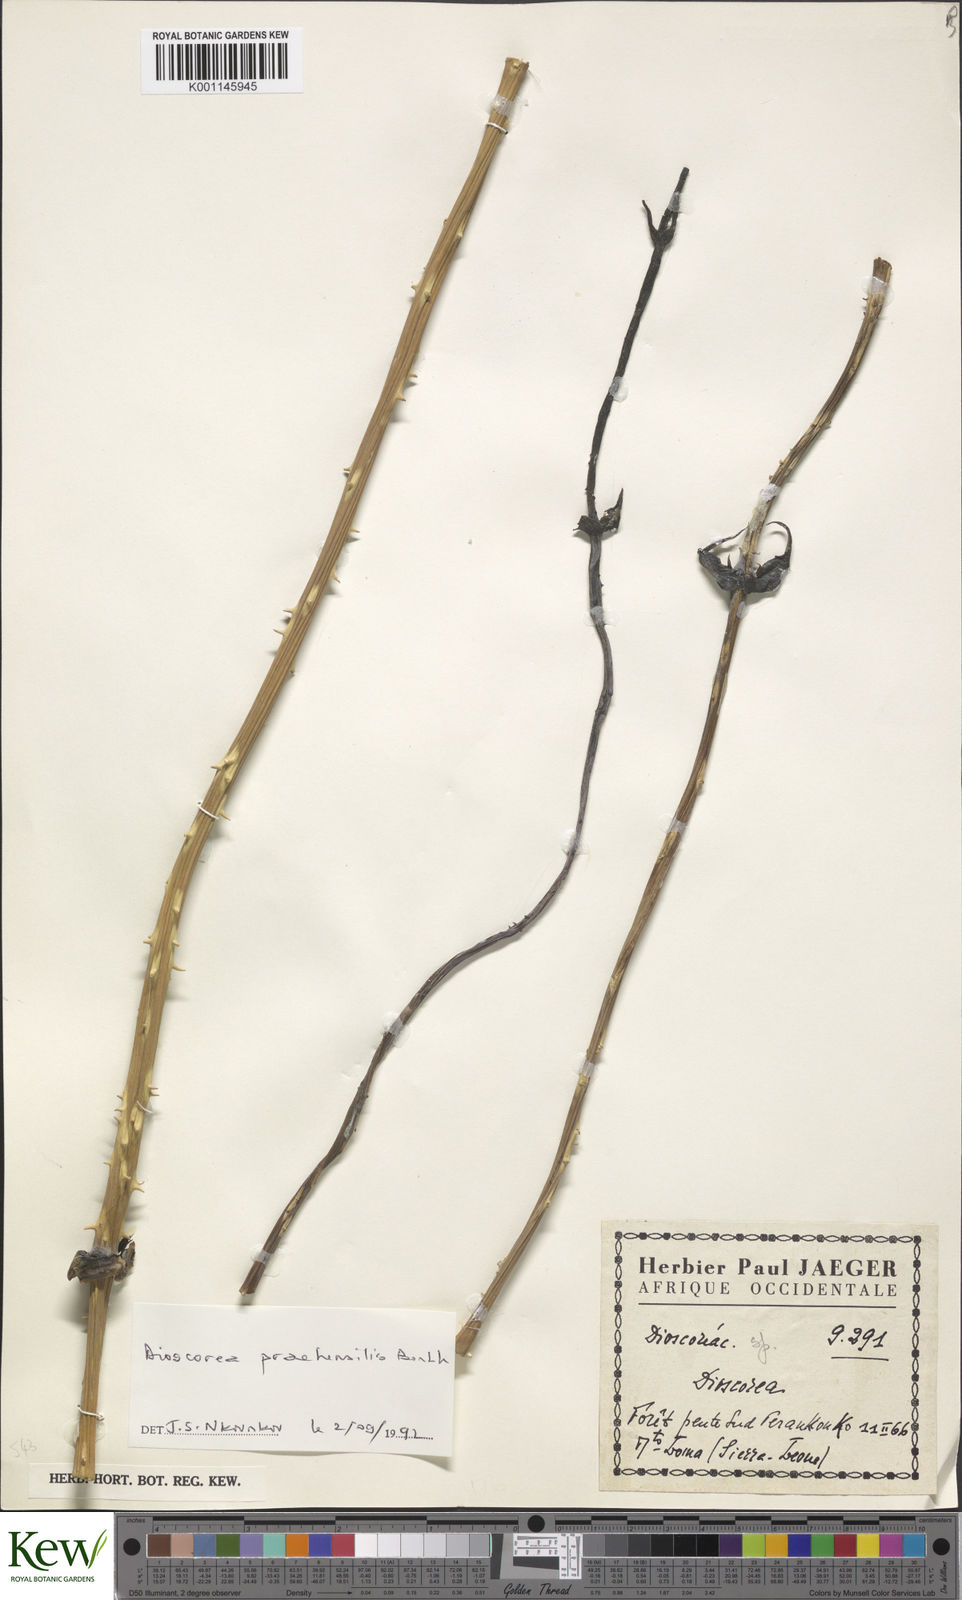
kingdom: Plantae
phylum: Tracheophyta
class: Liliopsida
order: Dioscoreales
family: Dioscoreaceae
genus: Dioscorea
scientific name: Dioscorea praehensilis
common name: Bush yam
